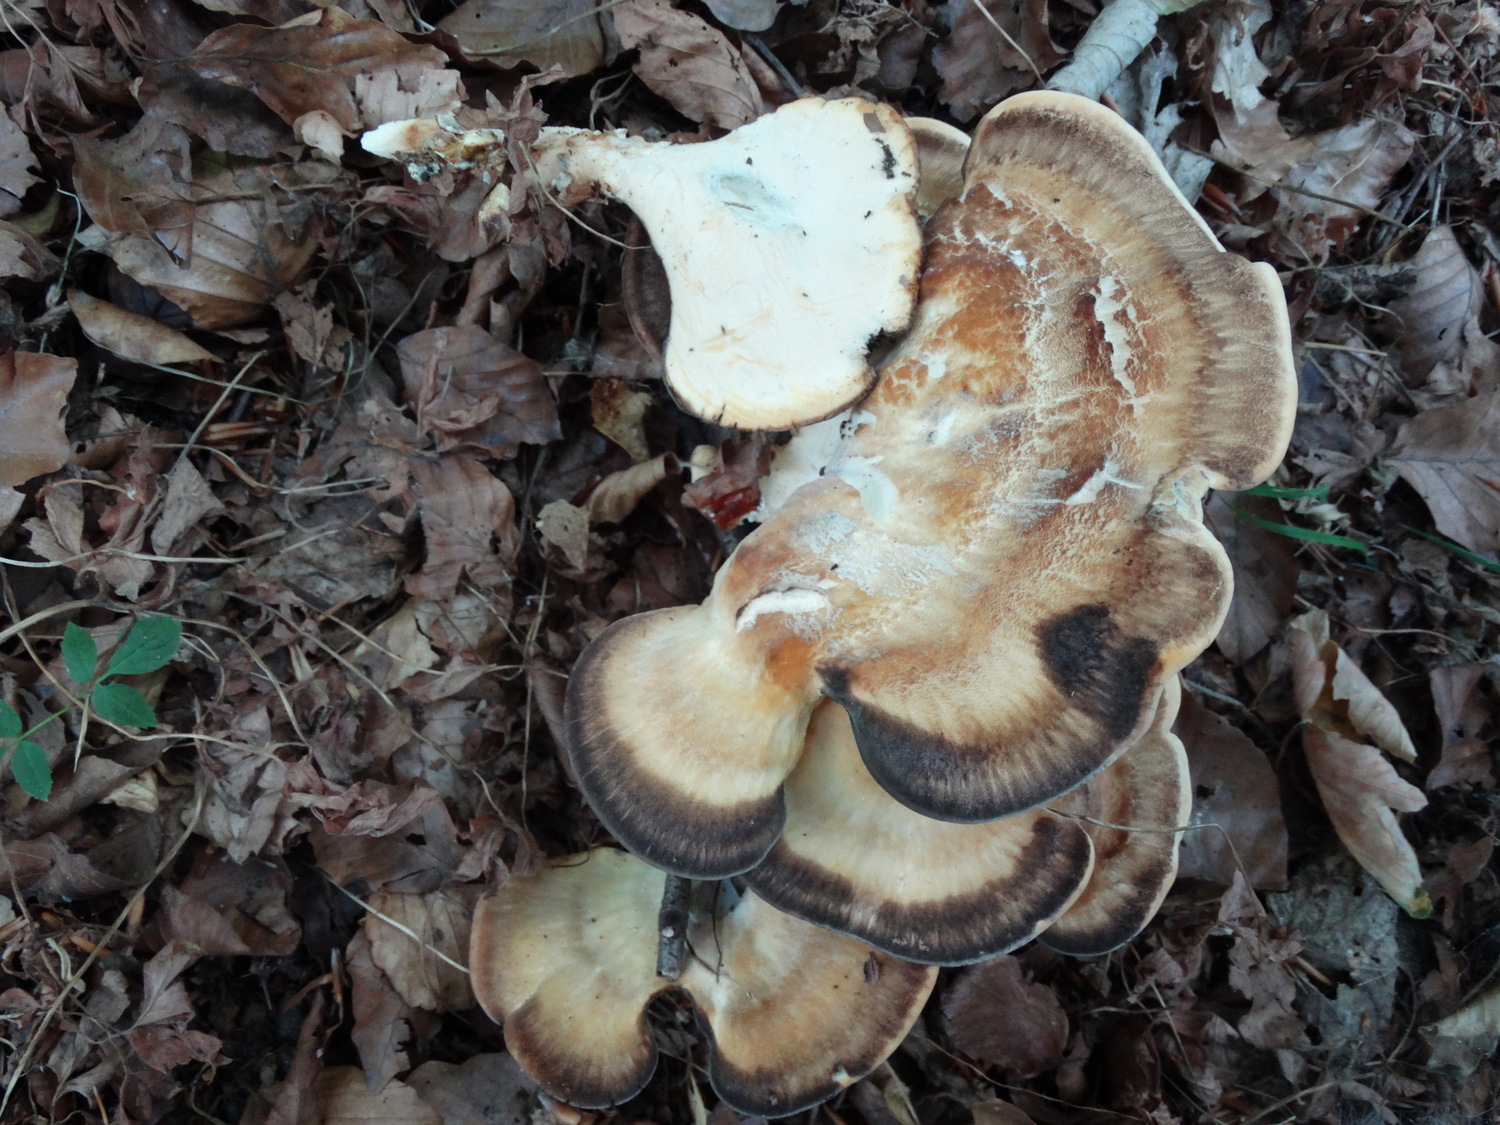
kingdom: Fungi
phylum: Basidiomycota
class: Agaricomycetes
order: Polyporales
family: Meripilaceae
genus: Meripilus
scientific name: Meripilus giganteus
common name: kæmpeporesvamp
